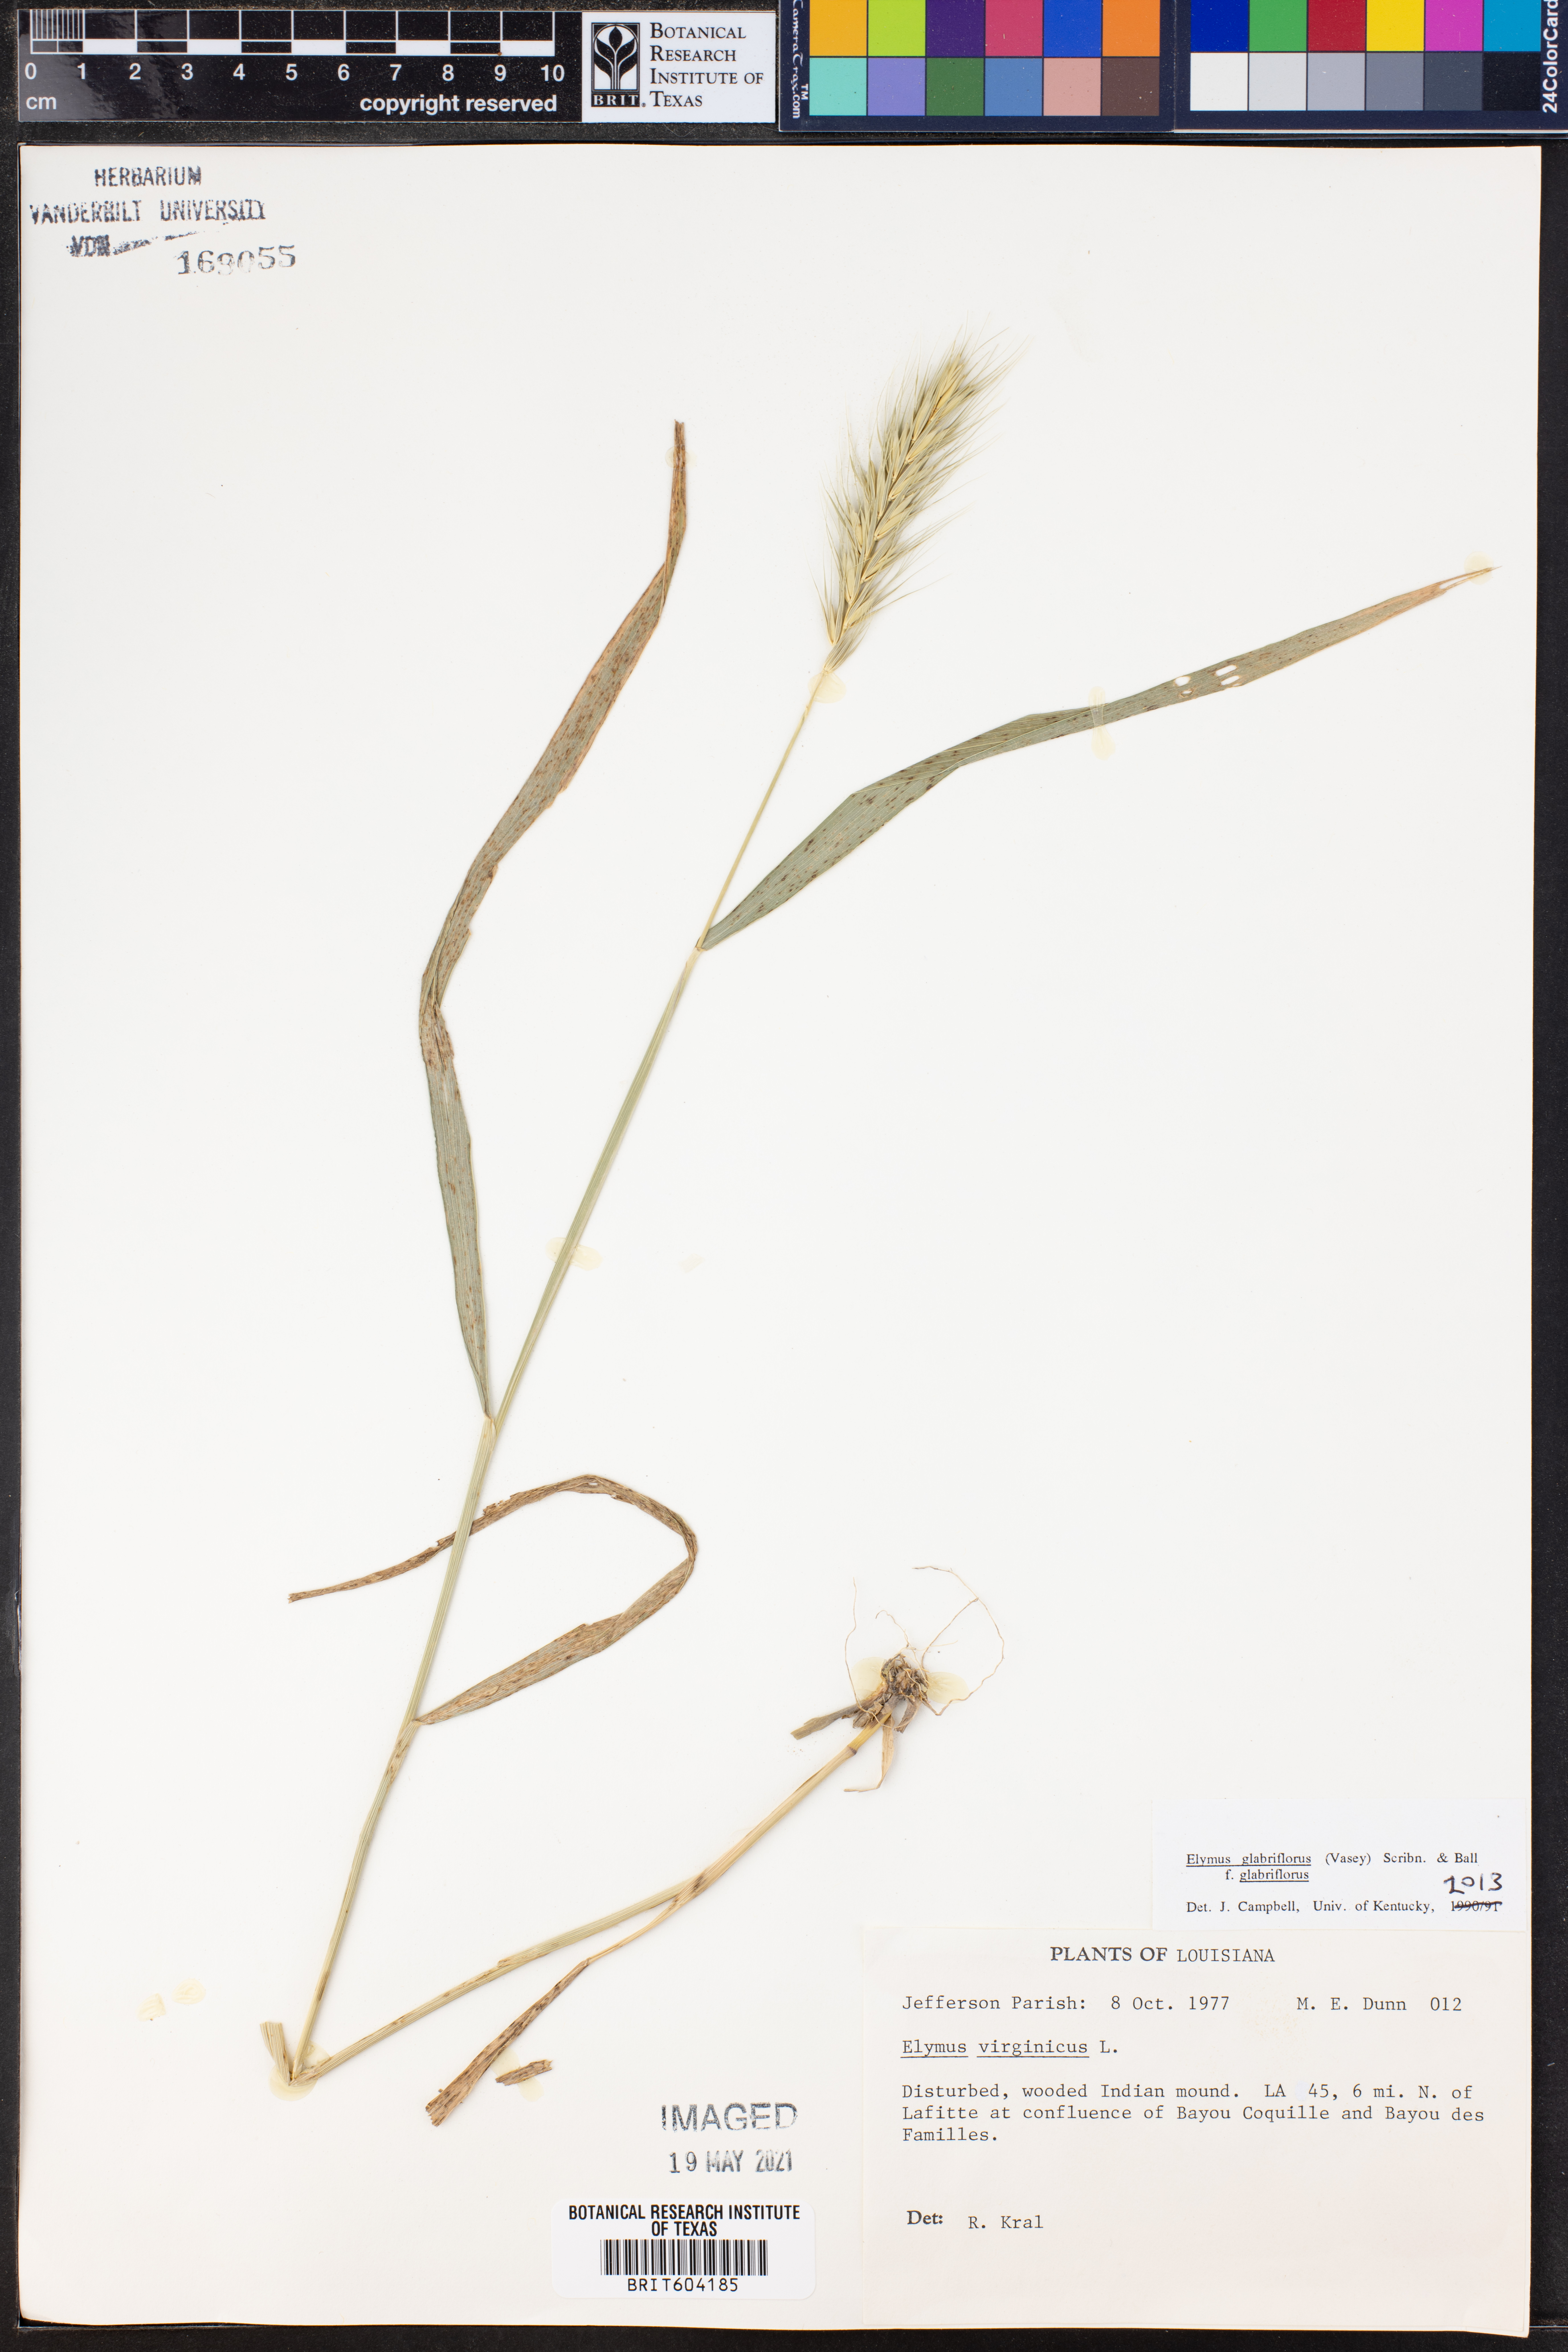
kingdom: Plantae
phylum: Tracheophyta
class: Liliopsida
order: Poales
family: Poaceae
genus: Elymus
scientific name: Elymus virginicus
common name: Common eastern wildrye
